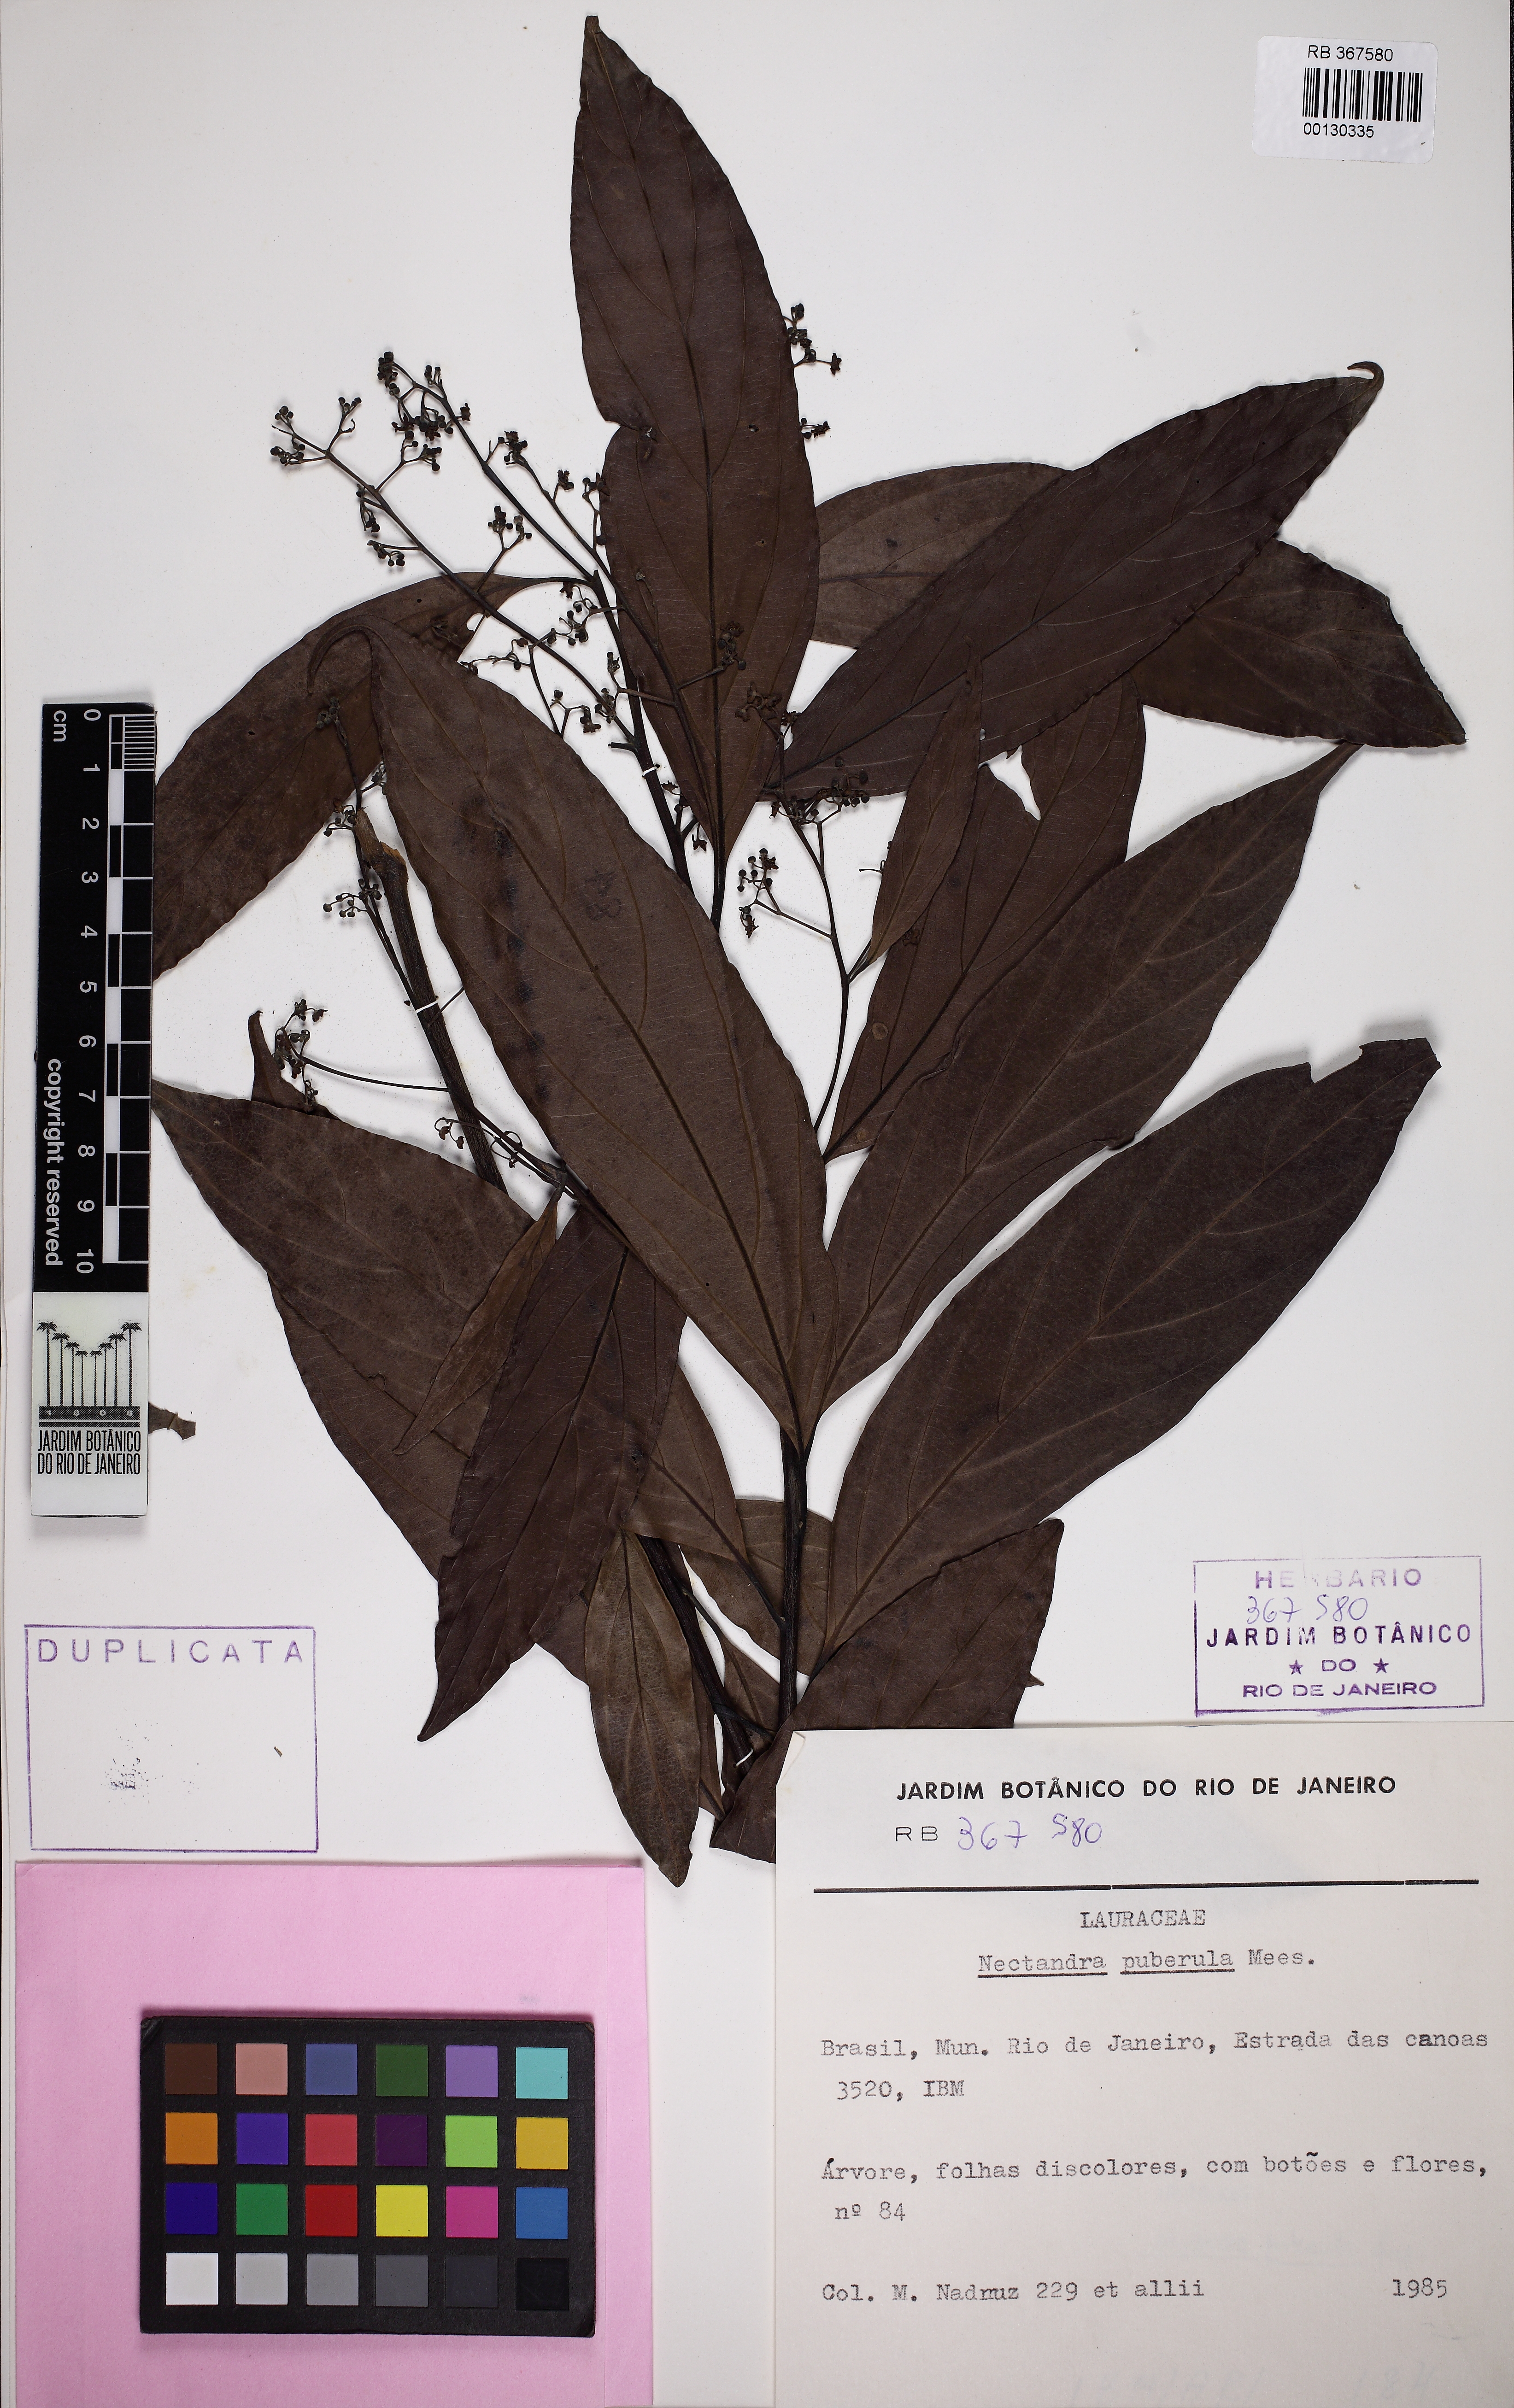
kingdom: Plantae
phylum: Tracheophyta
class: Magnoliopsida
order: Laurales
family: Lauraceae
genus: Nectandra
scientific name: Nectandra puberula
